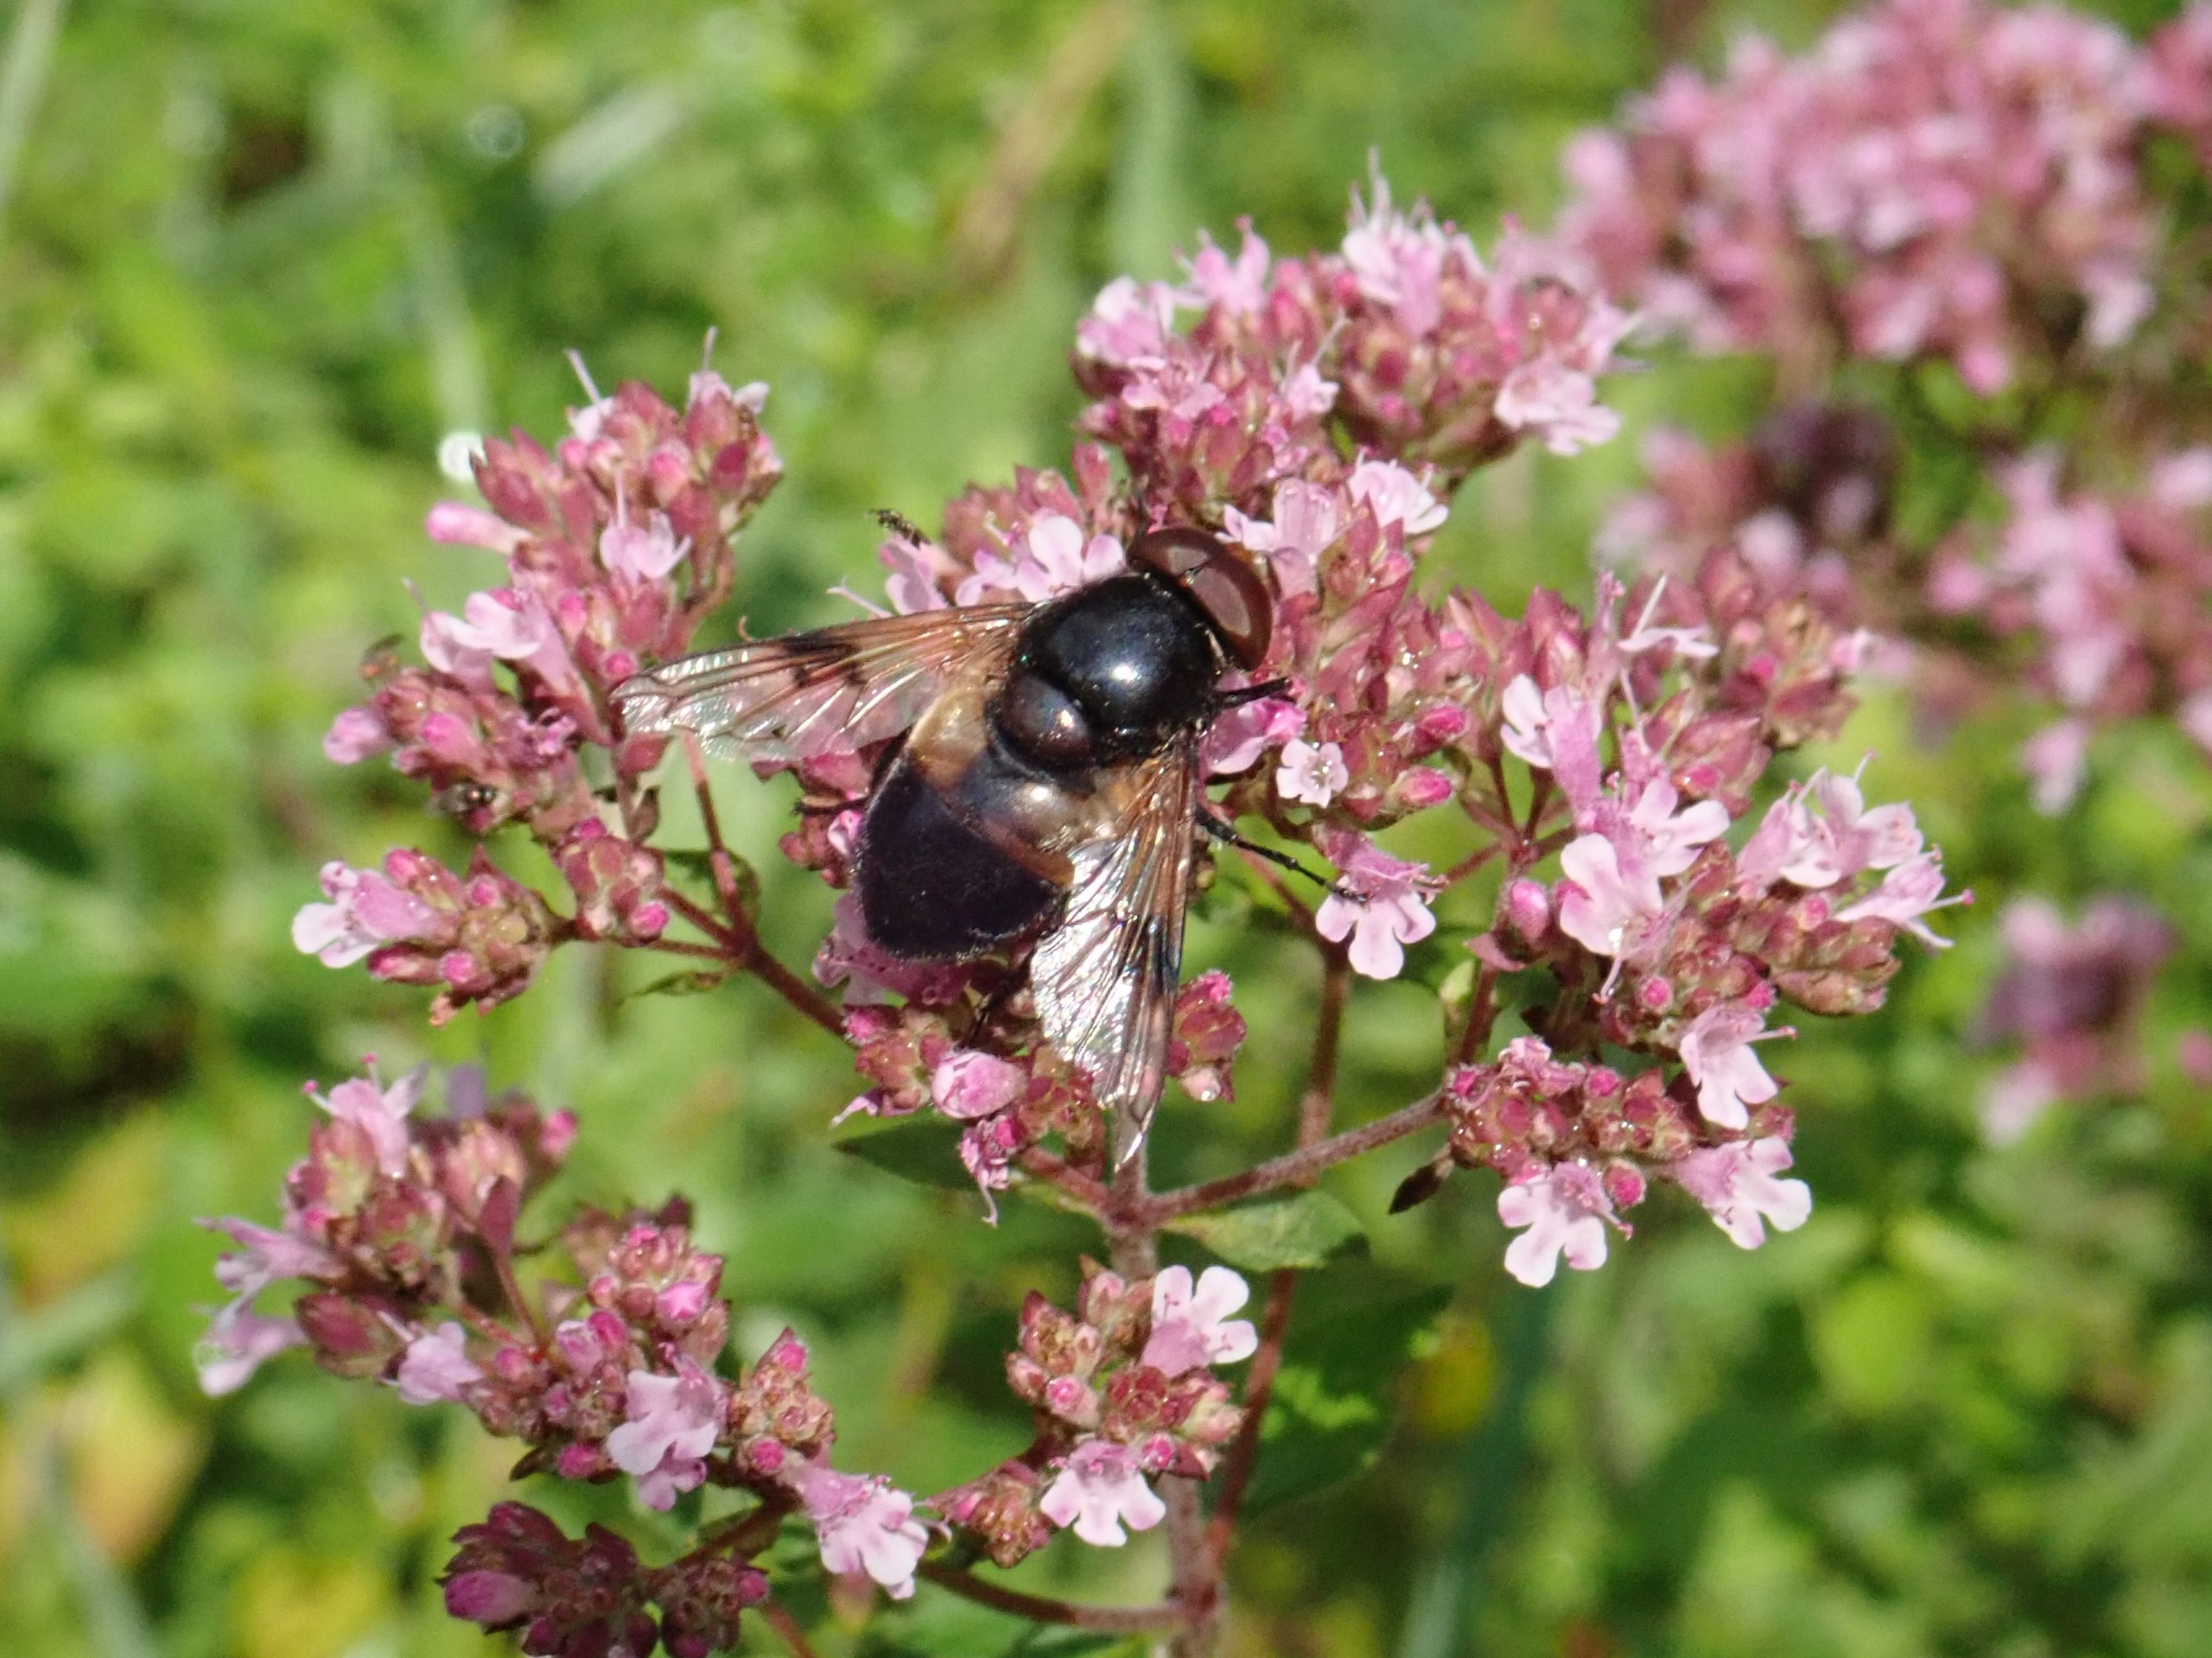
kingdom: Animalia
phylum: Arthropoda
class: Insecta
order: Diptera
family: Syrphidae
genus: Volucella
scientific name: Volucella pellucens
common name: Hvidbåndet humlesvirreflue
